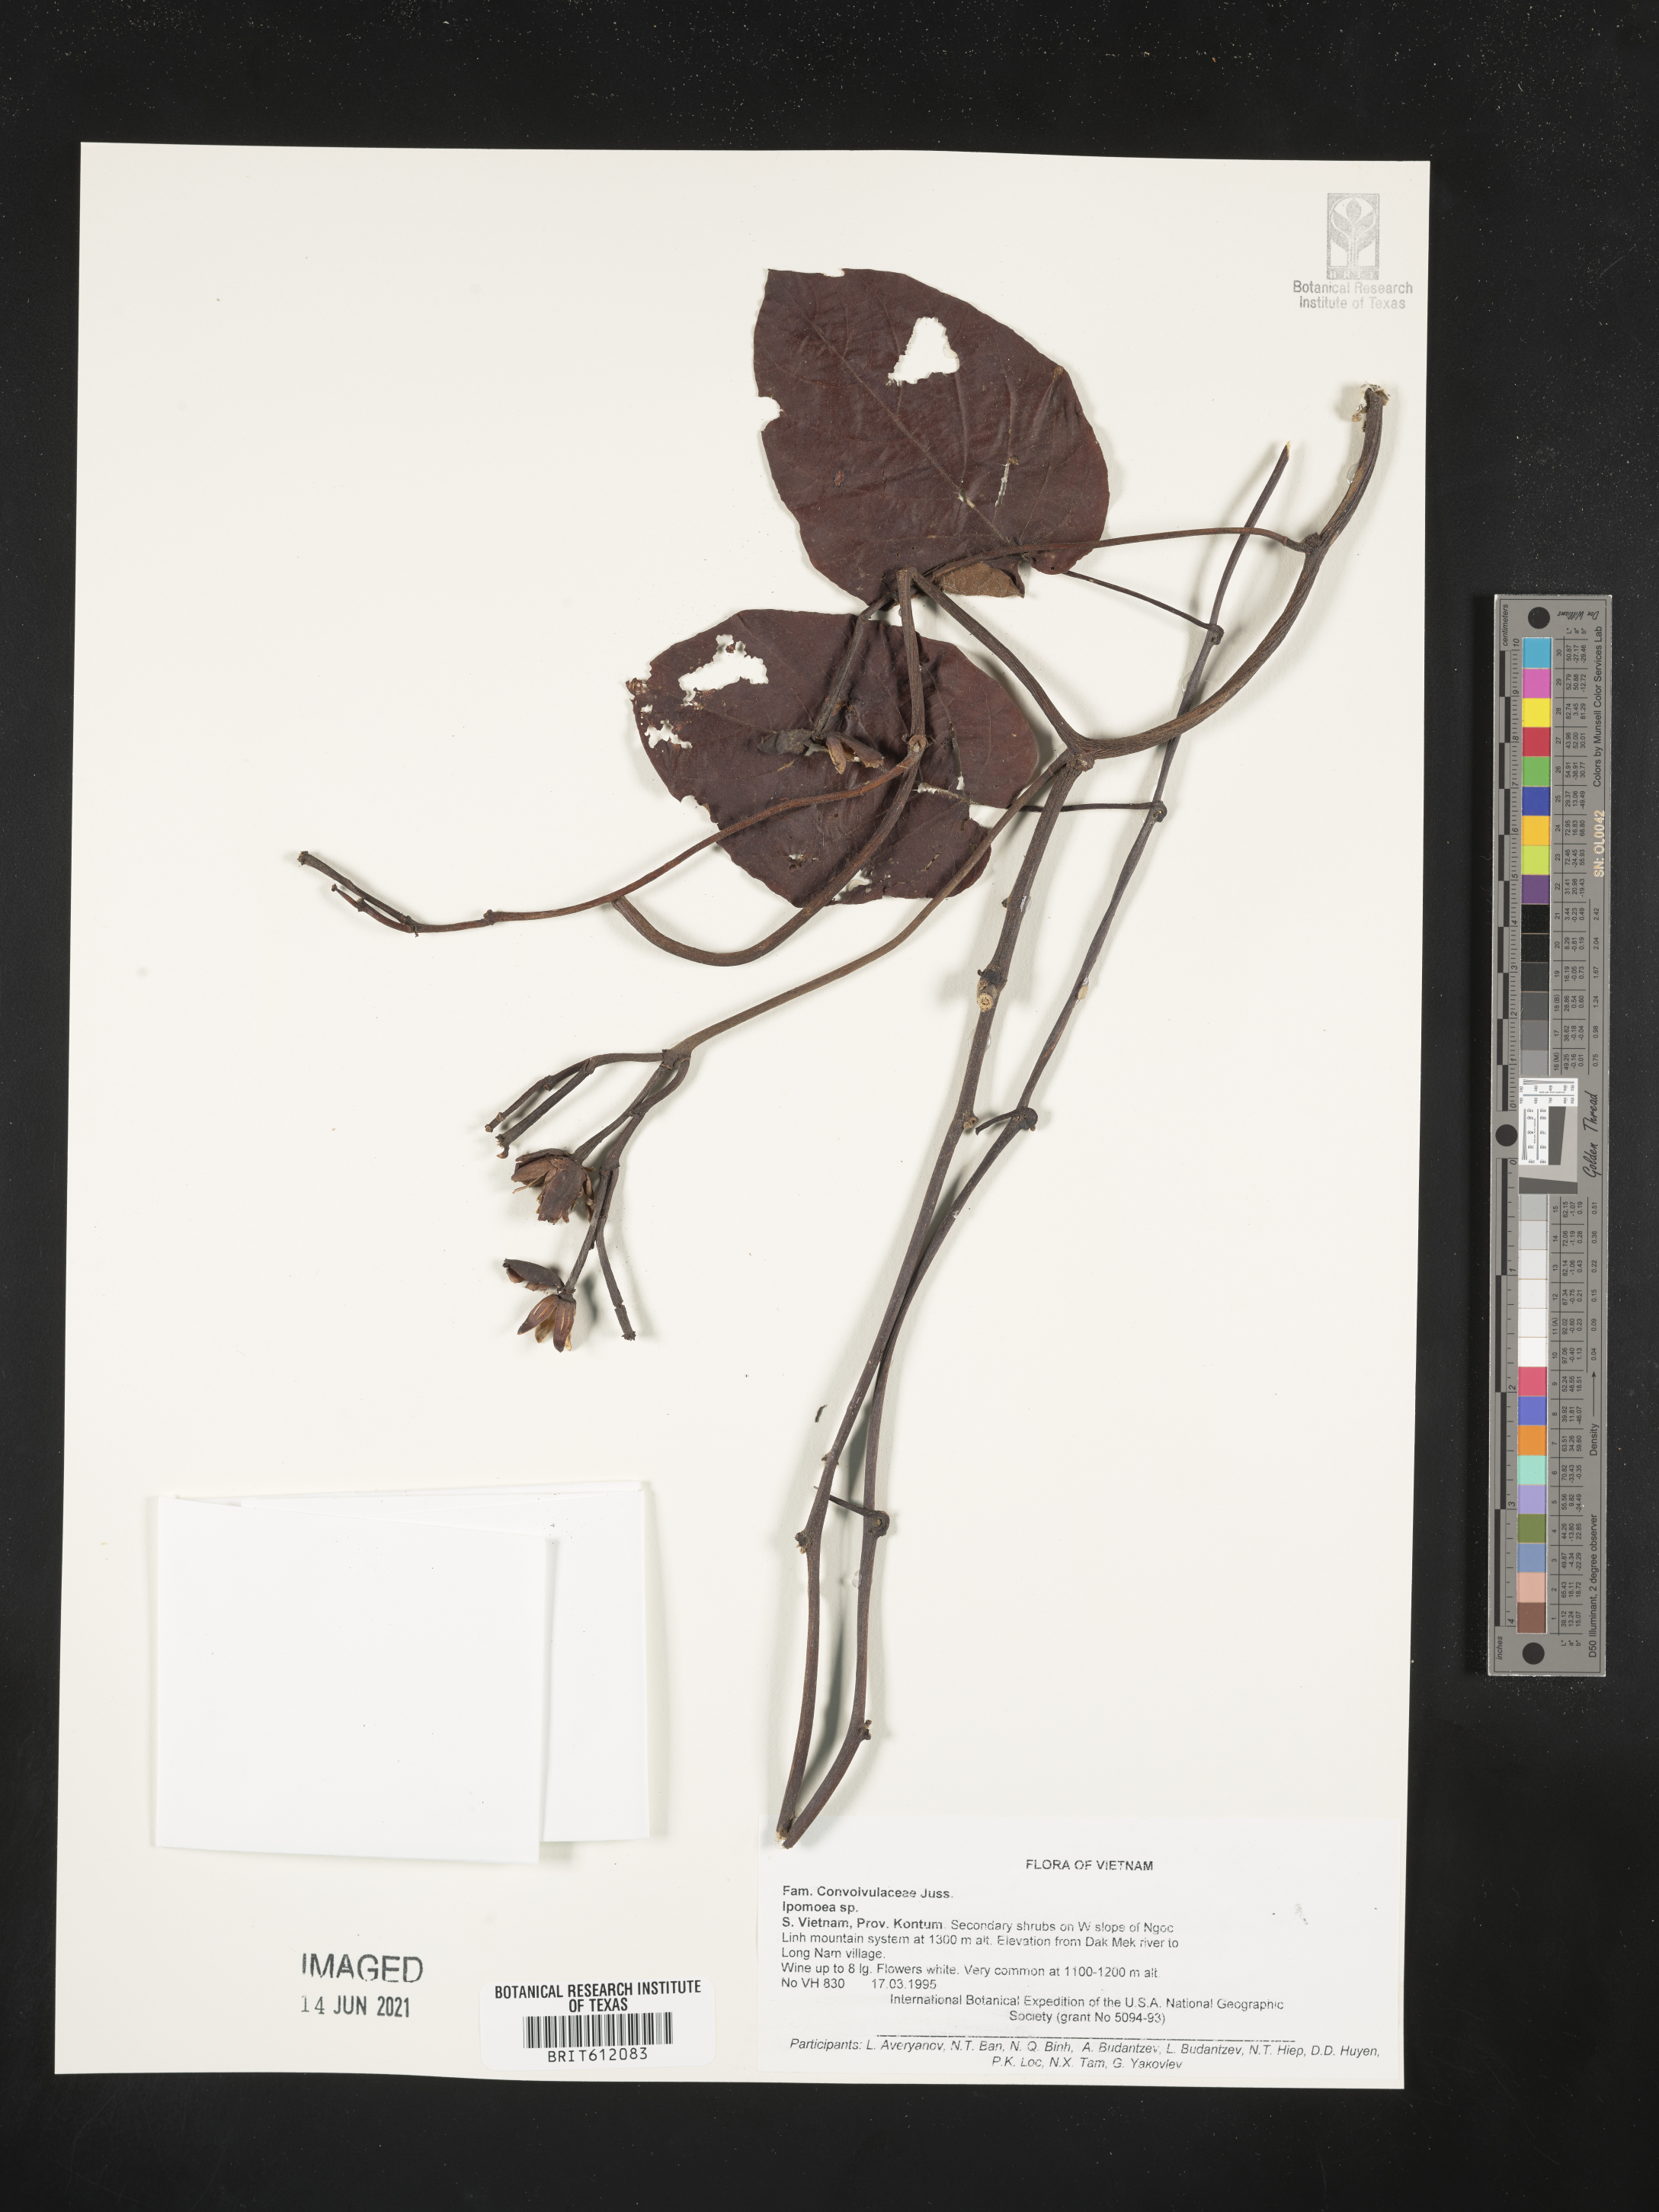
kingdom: Plantae
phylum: Tracheophyta
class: Magnoliopsida
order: Solanales
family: Convolvulaceae
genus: Ipomoea
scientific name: Ipomoea
